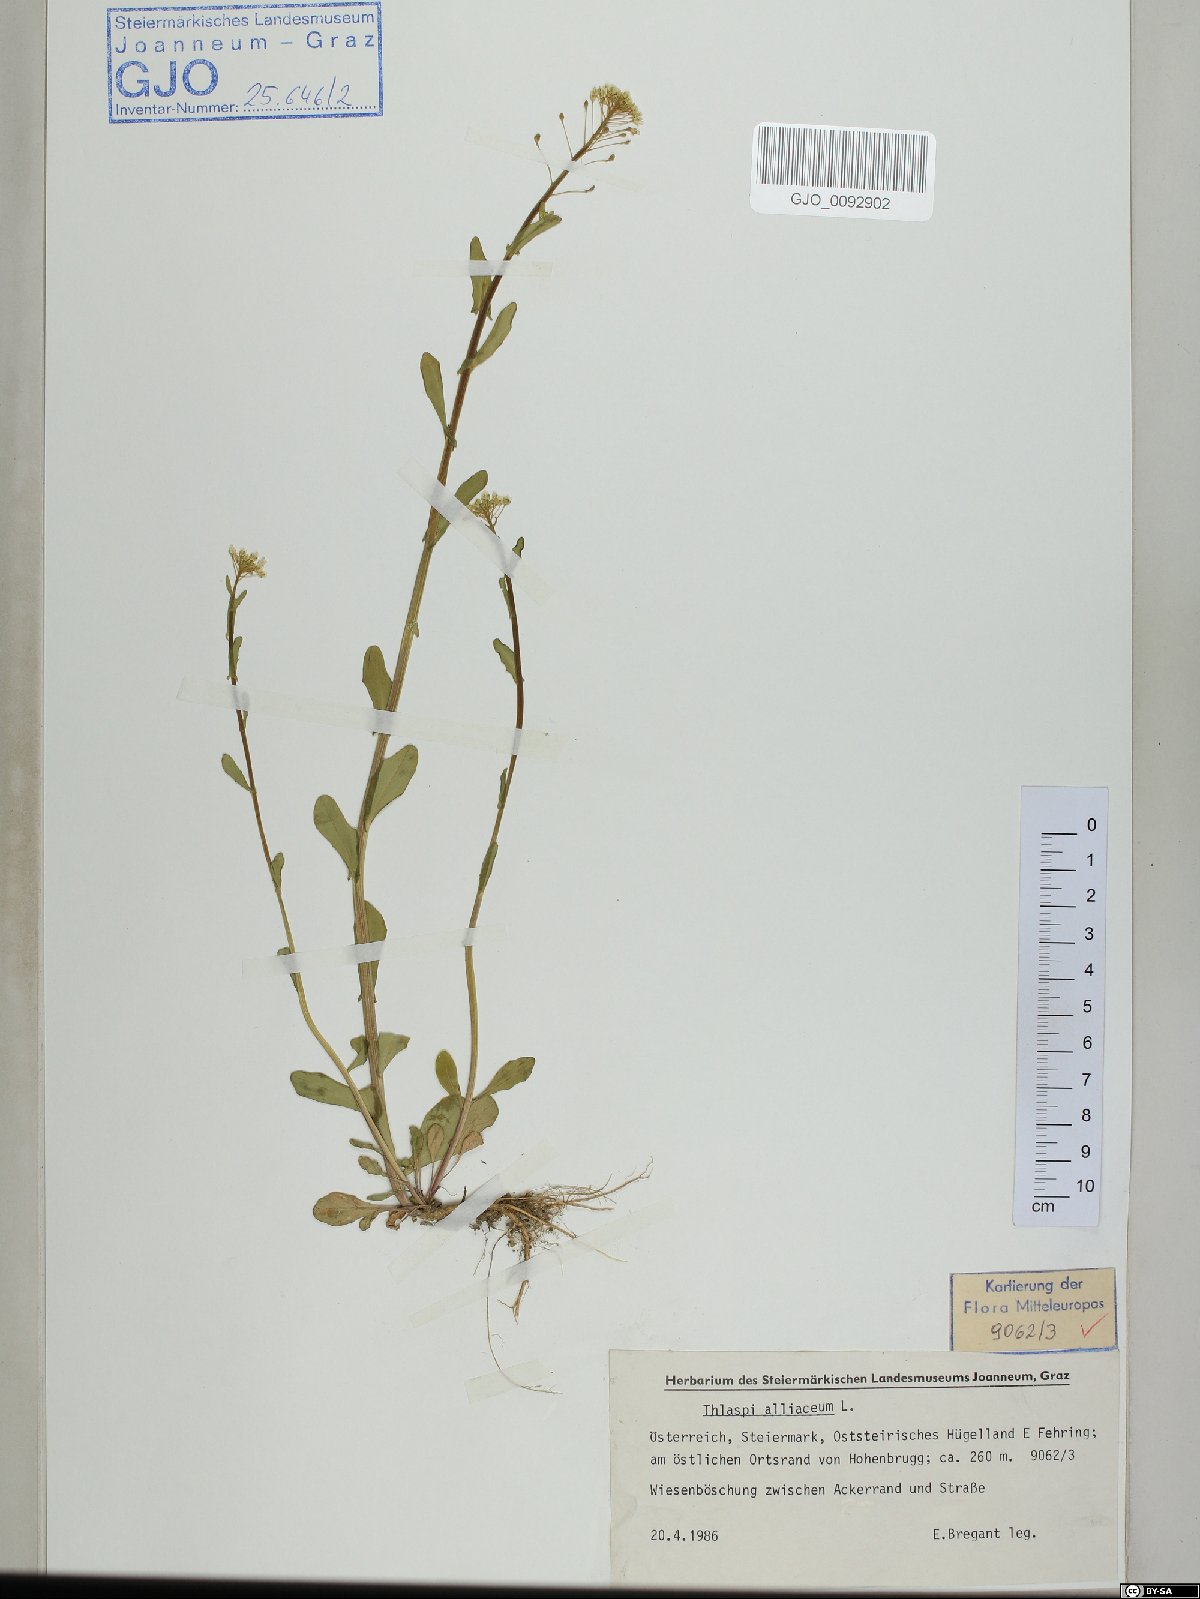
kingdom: Plantae
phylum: Tracheophyta
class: Magnoliopsida
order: Brassicales
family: Brassicaceae
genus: Mummenhoffia
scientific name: Mummenhoffia alliacea
